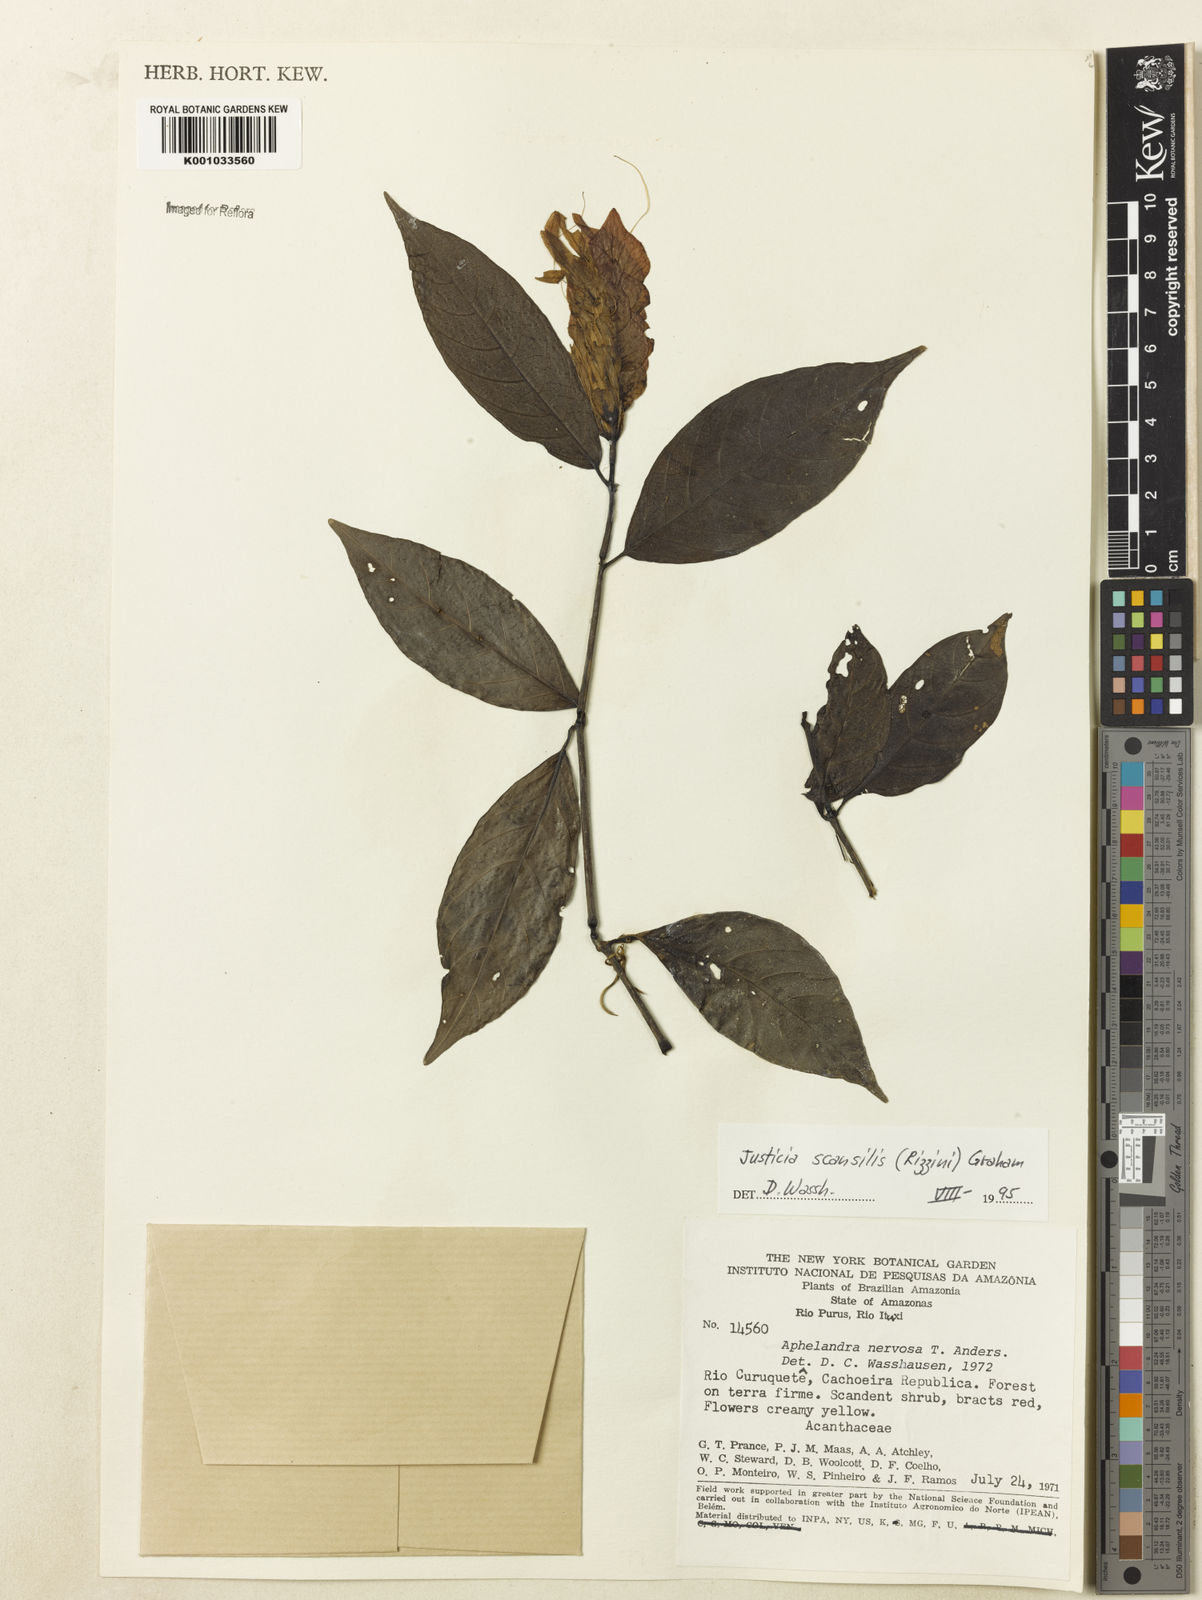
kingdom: Plantae
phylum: Tracheophyta
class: Magnoliopsida
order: Lamiales
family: Acanthaceae
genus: Justicia
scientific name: Justicia scansilis
